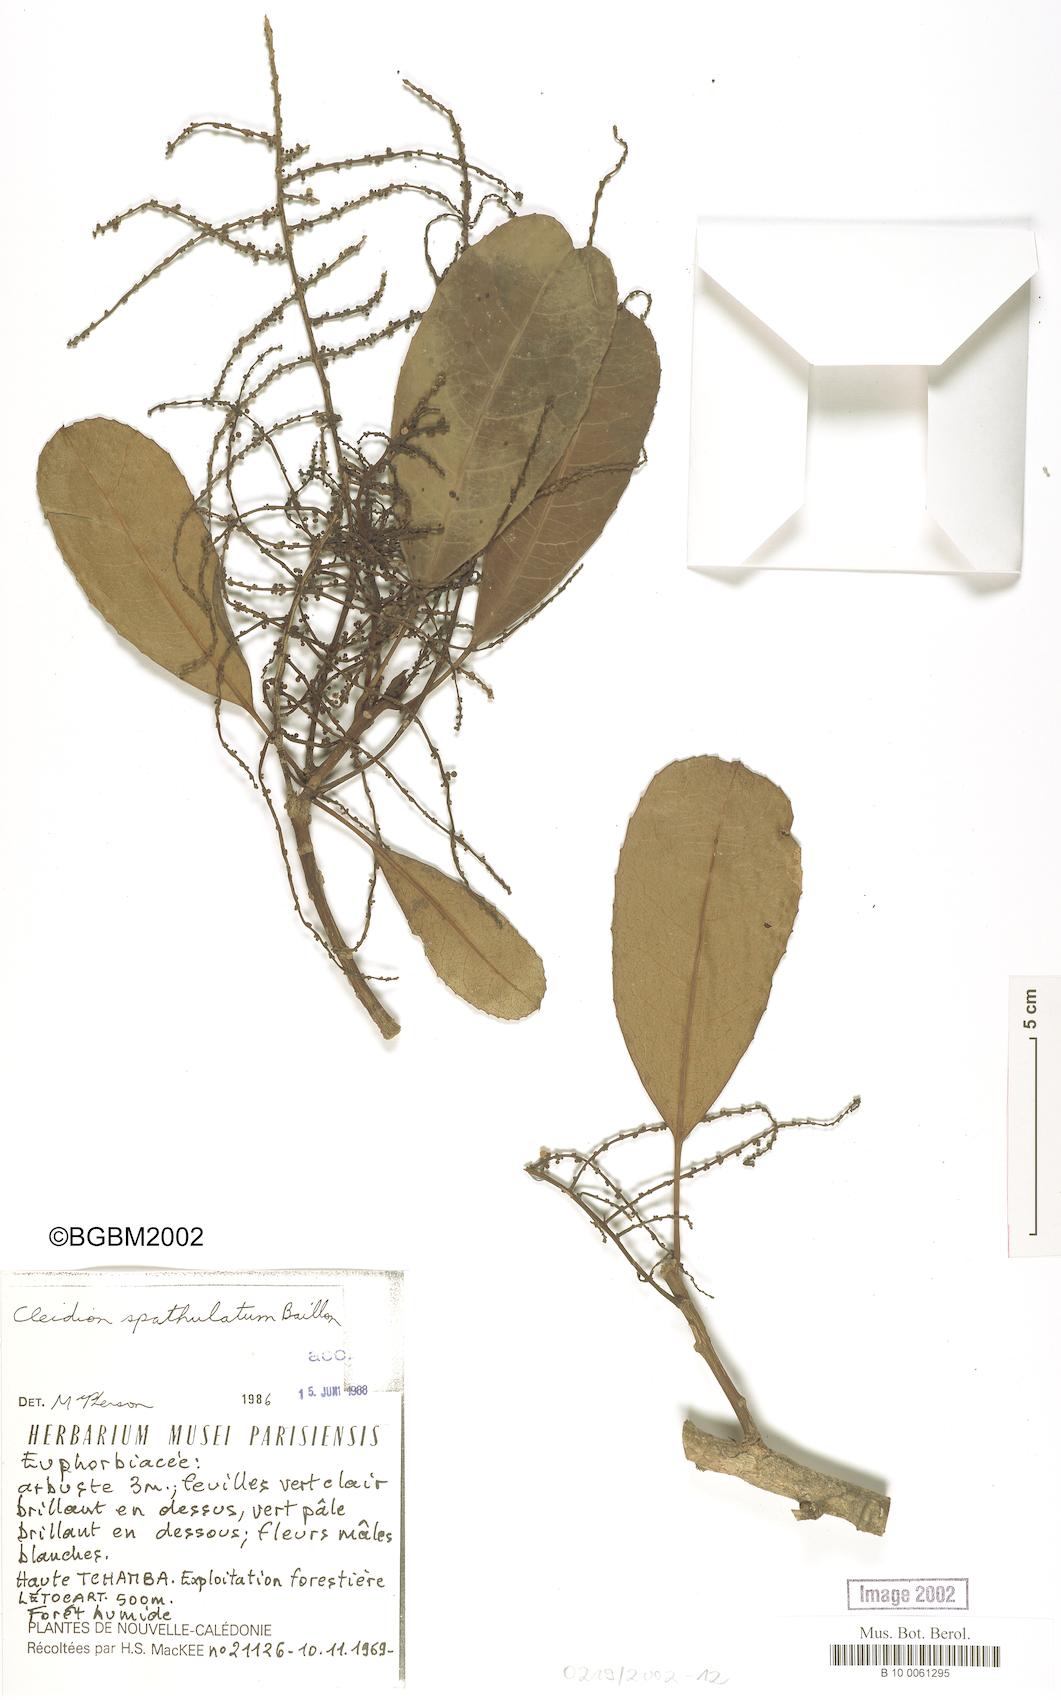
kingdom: Plantae
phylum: Tracheophyta
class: Magnoliopsida
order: Malpighiales
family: Euphorbiaceae
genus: Cleidion
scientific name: Cleidion spathulatum
